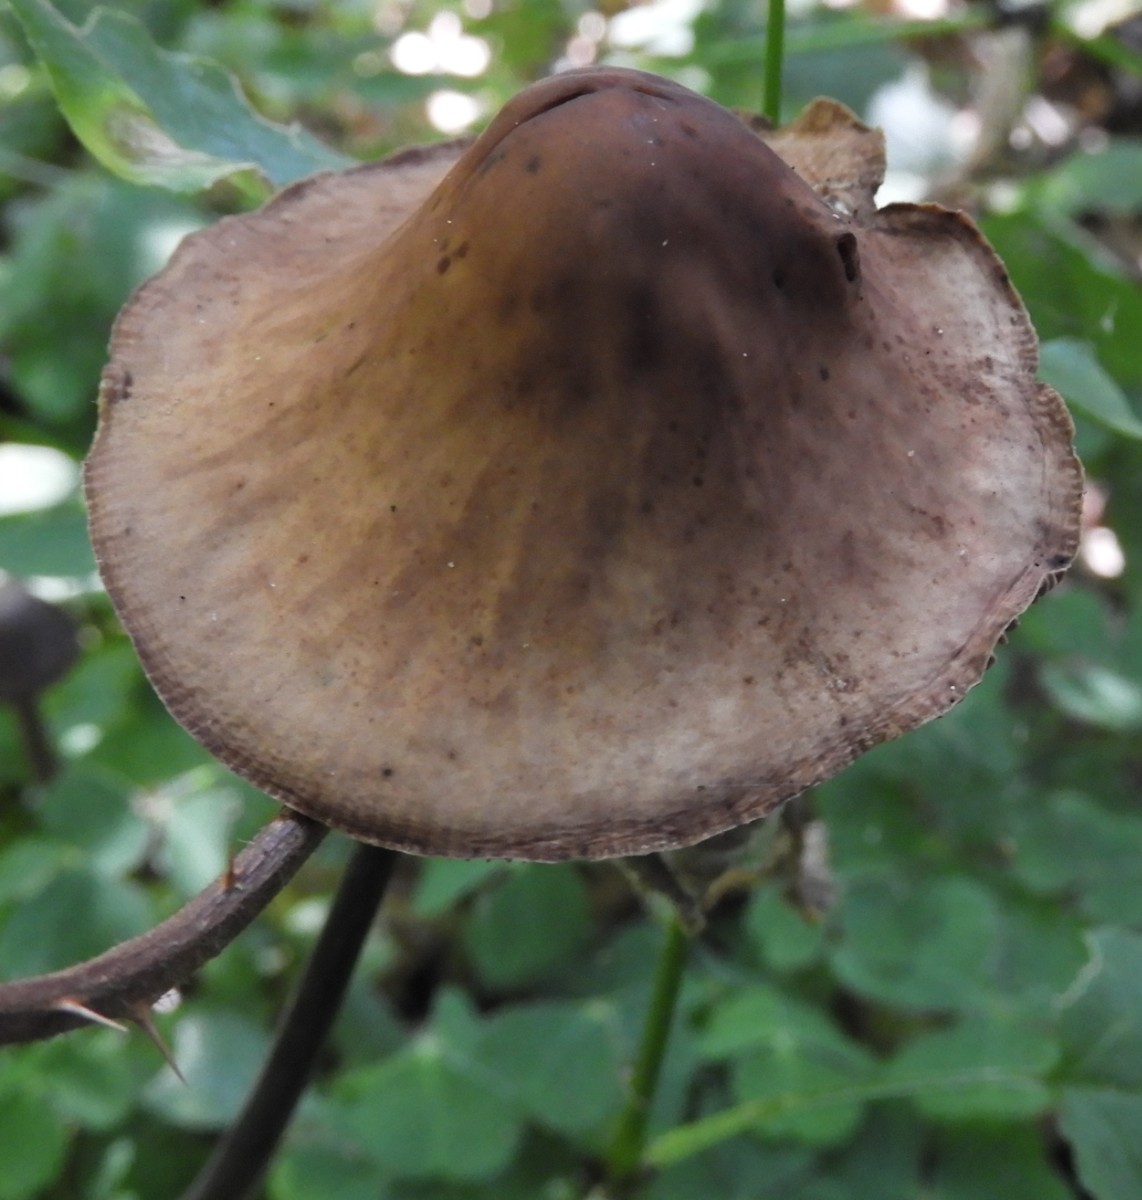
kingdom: Fungi
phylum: Basidiomycota
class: Agaricomycetes
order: Agaricales
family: Omphalotaceae
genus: Mycetinis
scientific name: Mycetinis alliaceus
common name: stor løghat
